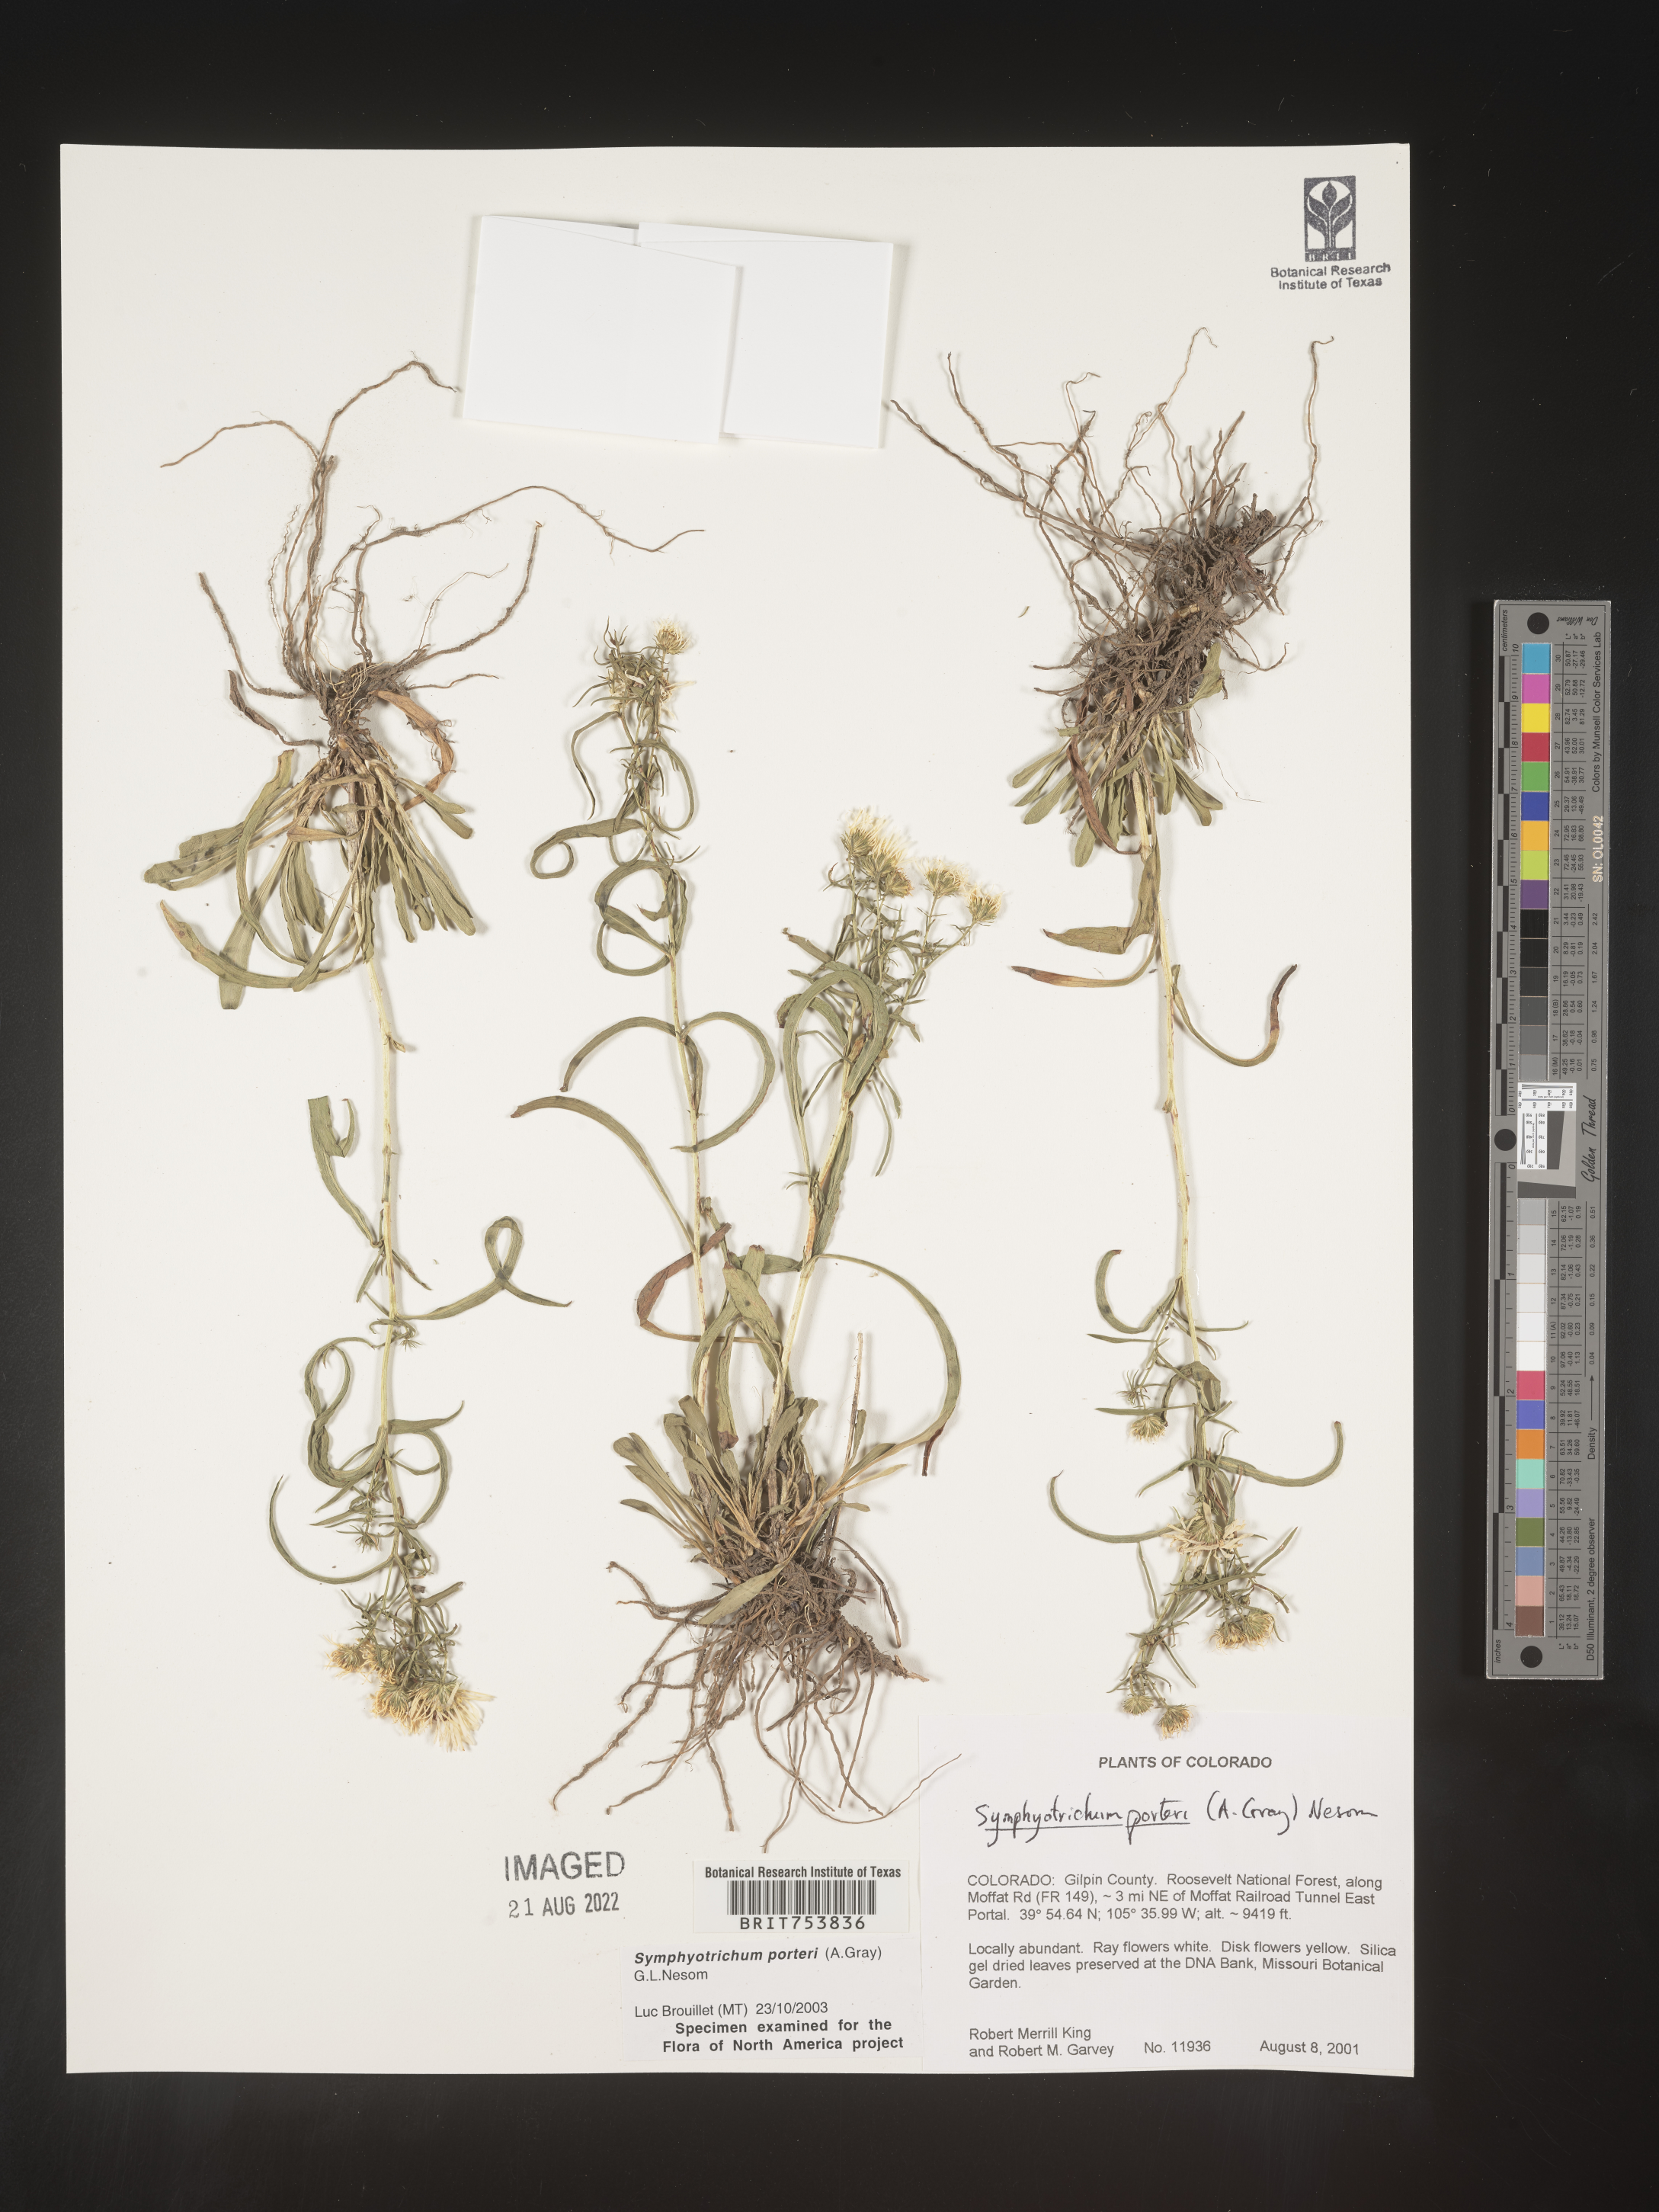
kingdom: Plantae
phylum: Tracheophyta
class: Magnoliopsida
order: Asterales
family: Asteraceae
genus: Symphyotrichum
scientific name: Symphyotrichum porteri
